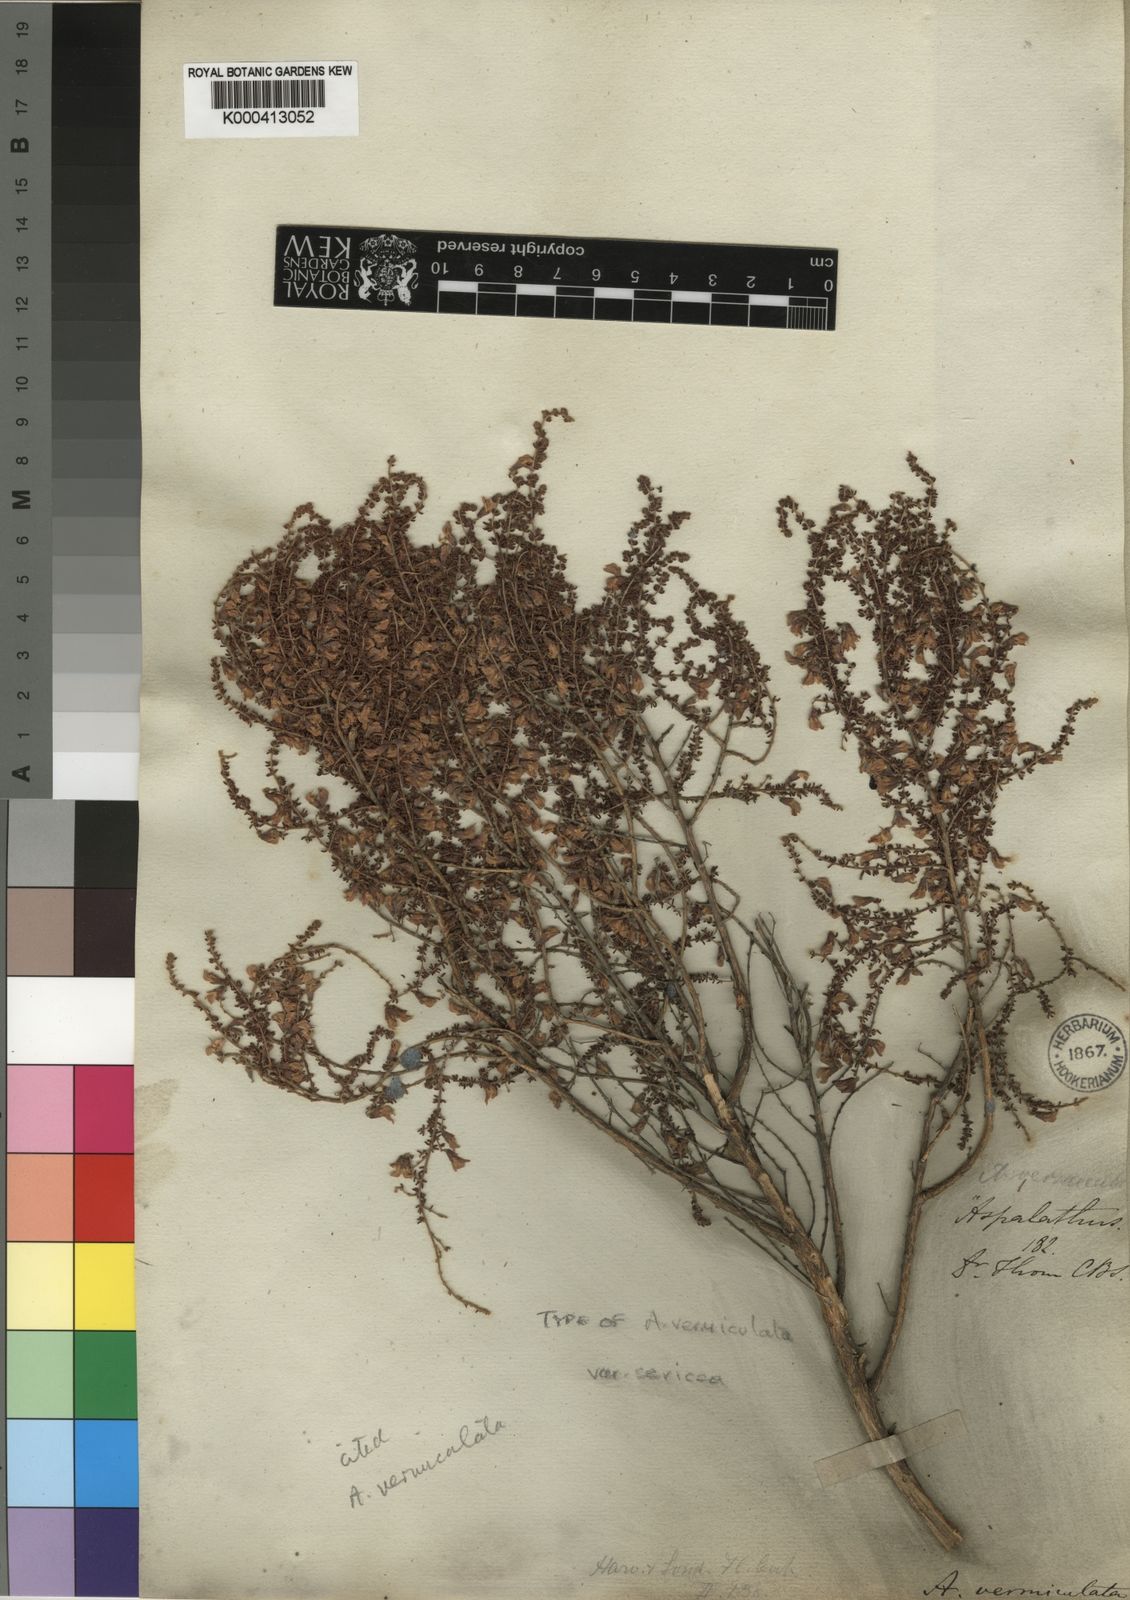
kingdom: Plantae
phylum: Tracheophyta
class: Magnoliopsida
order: Fabales
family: Fabaceae
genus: Aspalathus
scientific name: Aspalathus vermiculata
